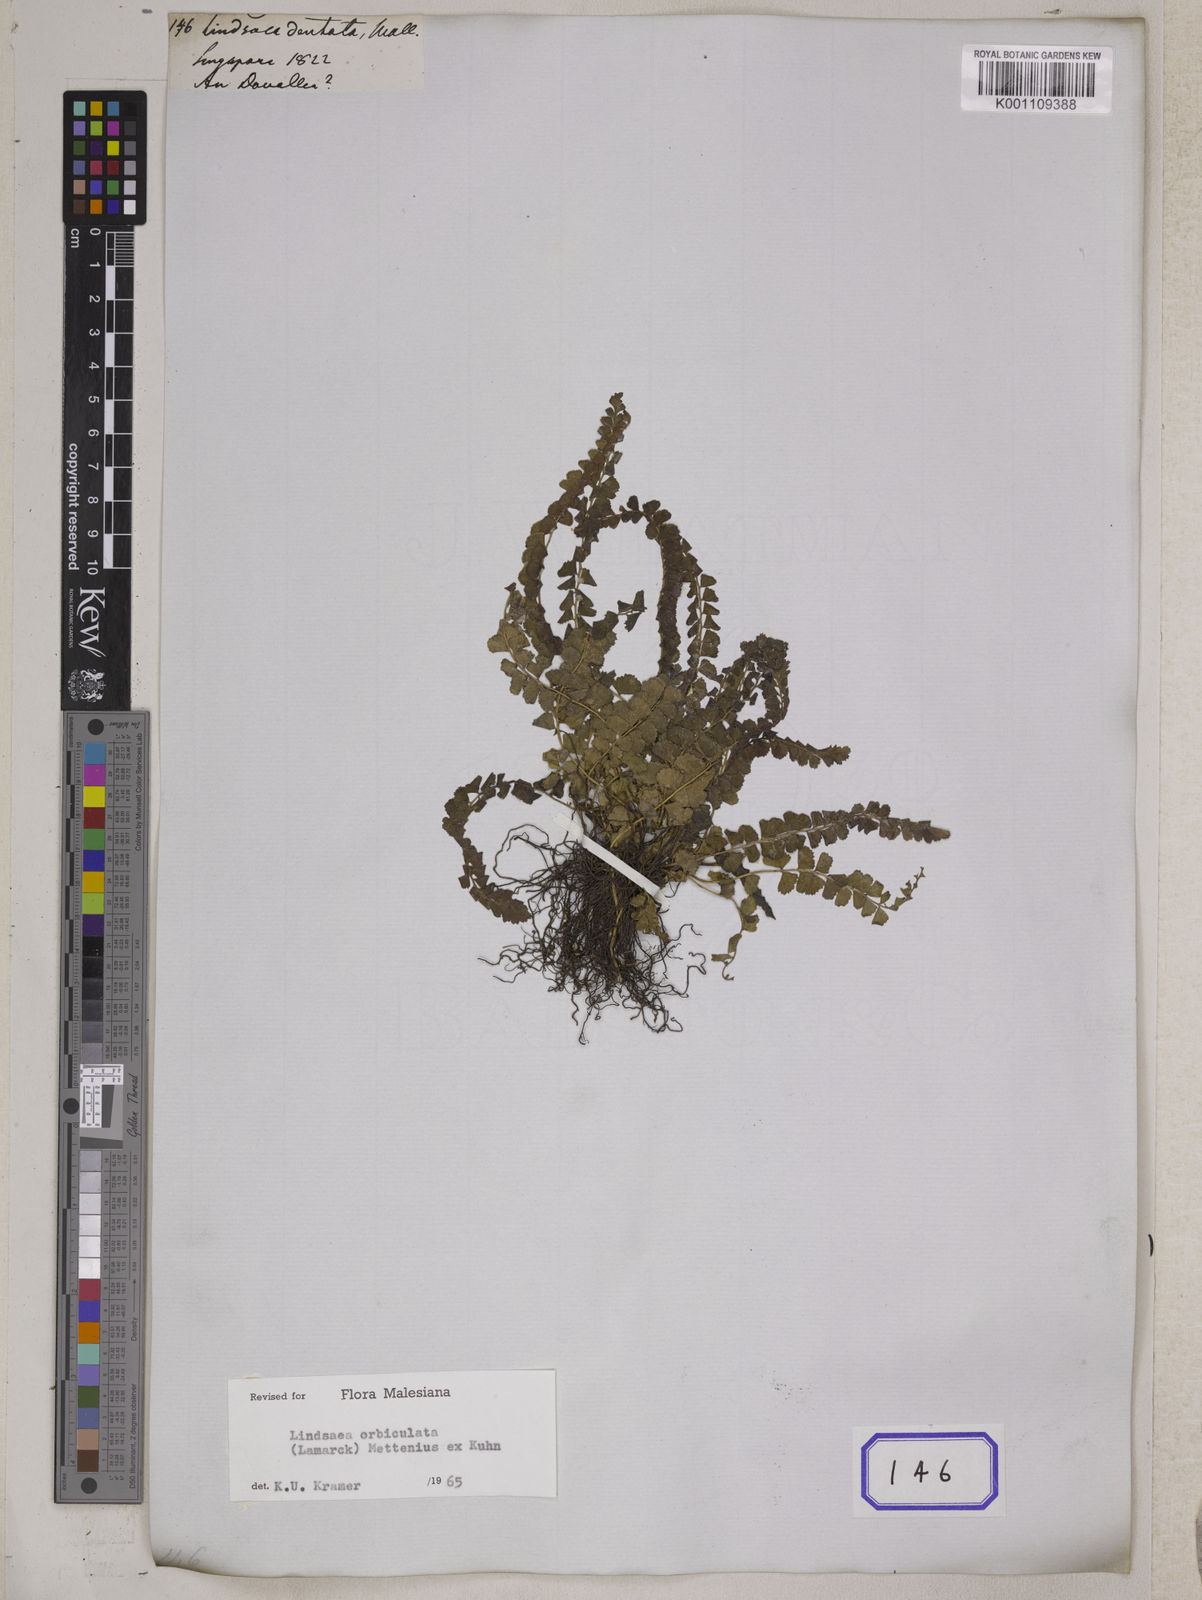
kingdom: Plantae
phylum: Tracheophyta
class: Polypodiopsida
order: Polypodiales
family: Lindsaeaceae
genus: Lindsaea
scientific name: Lindsaea
